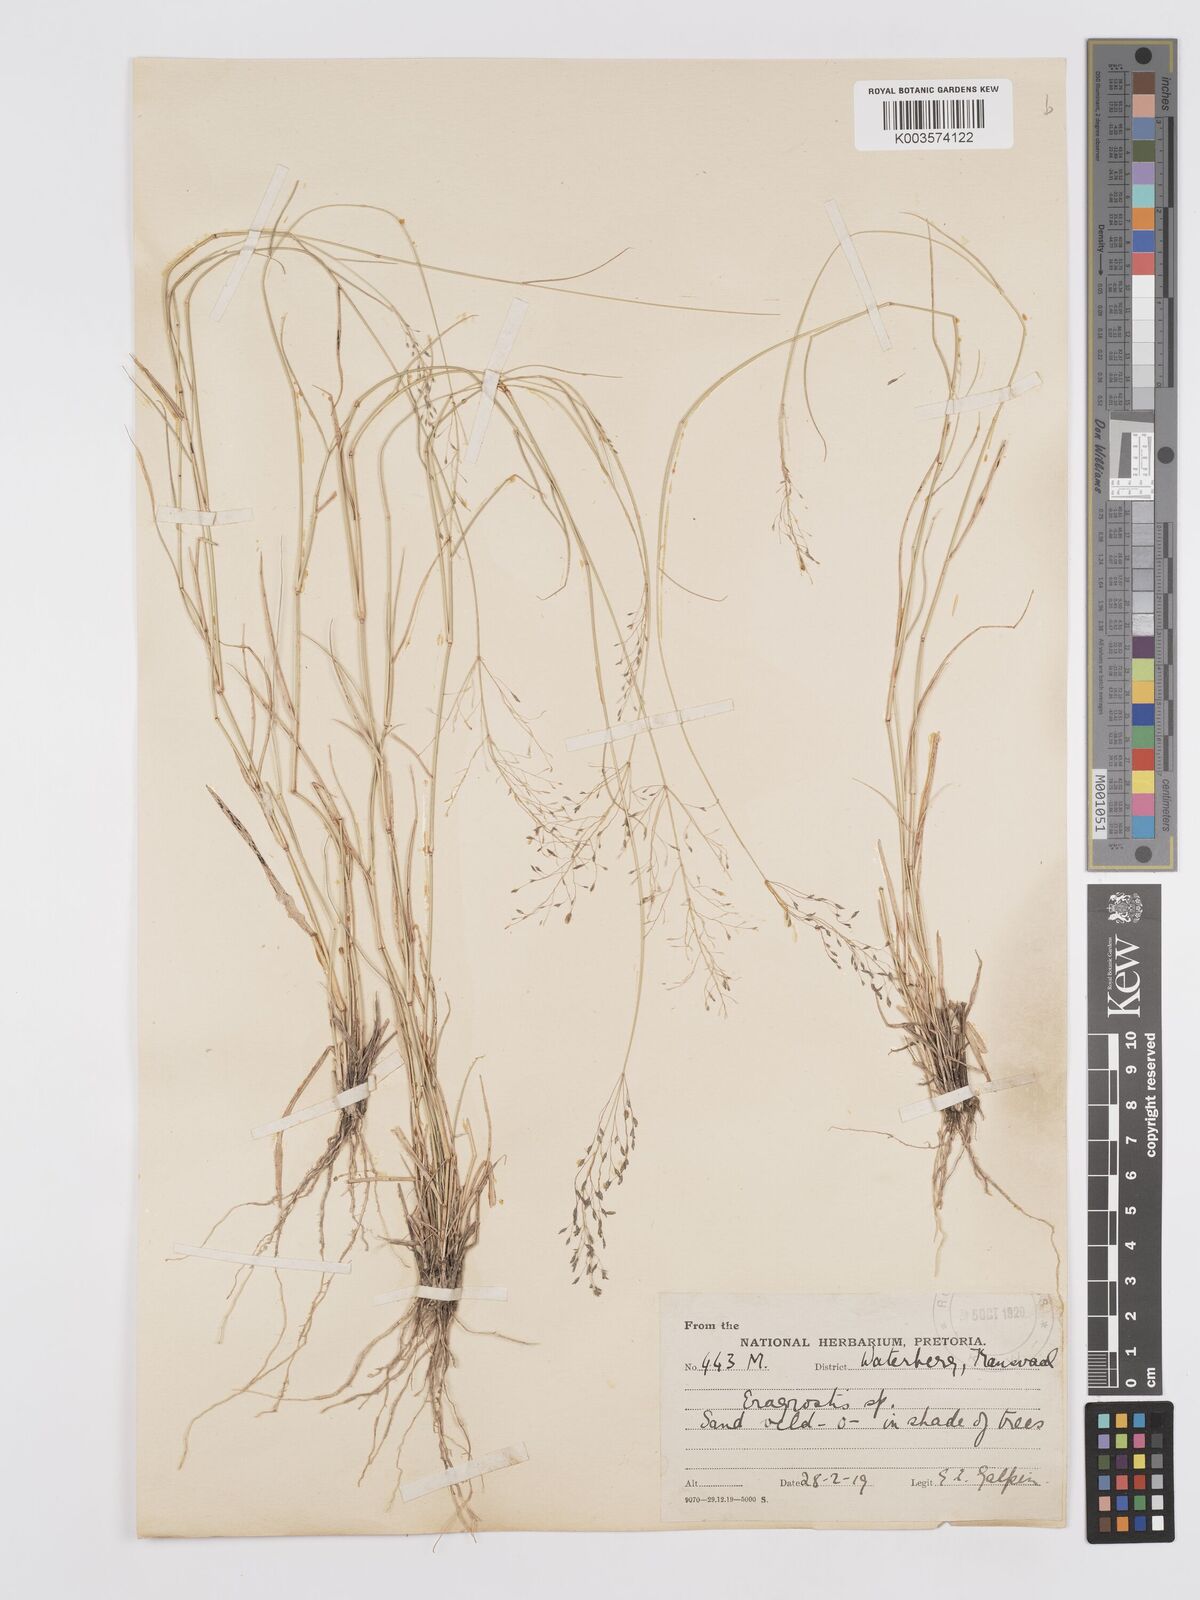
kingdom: Plantae
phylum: Tracheophyta
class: Liliopsida
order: Poales
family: Poaceae
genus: Eragrostis
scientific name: Eragrostis cylindriflora
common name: Cylinderflower lovegrass
